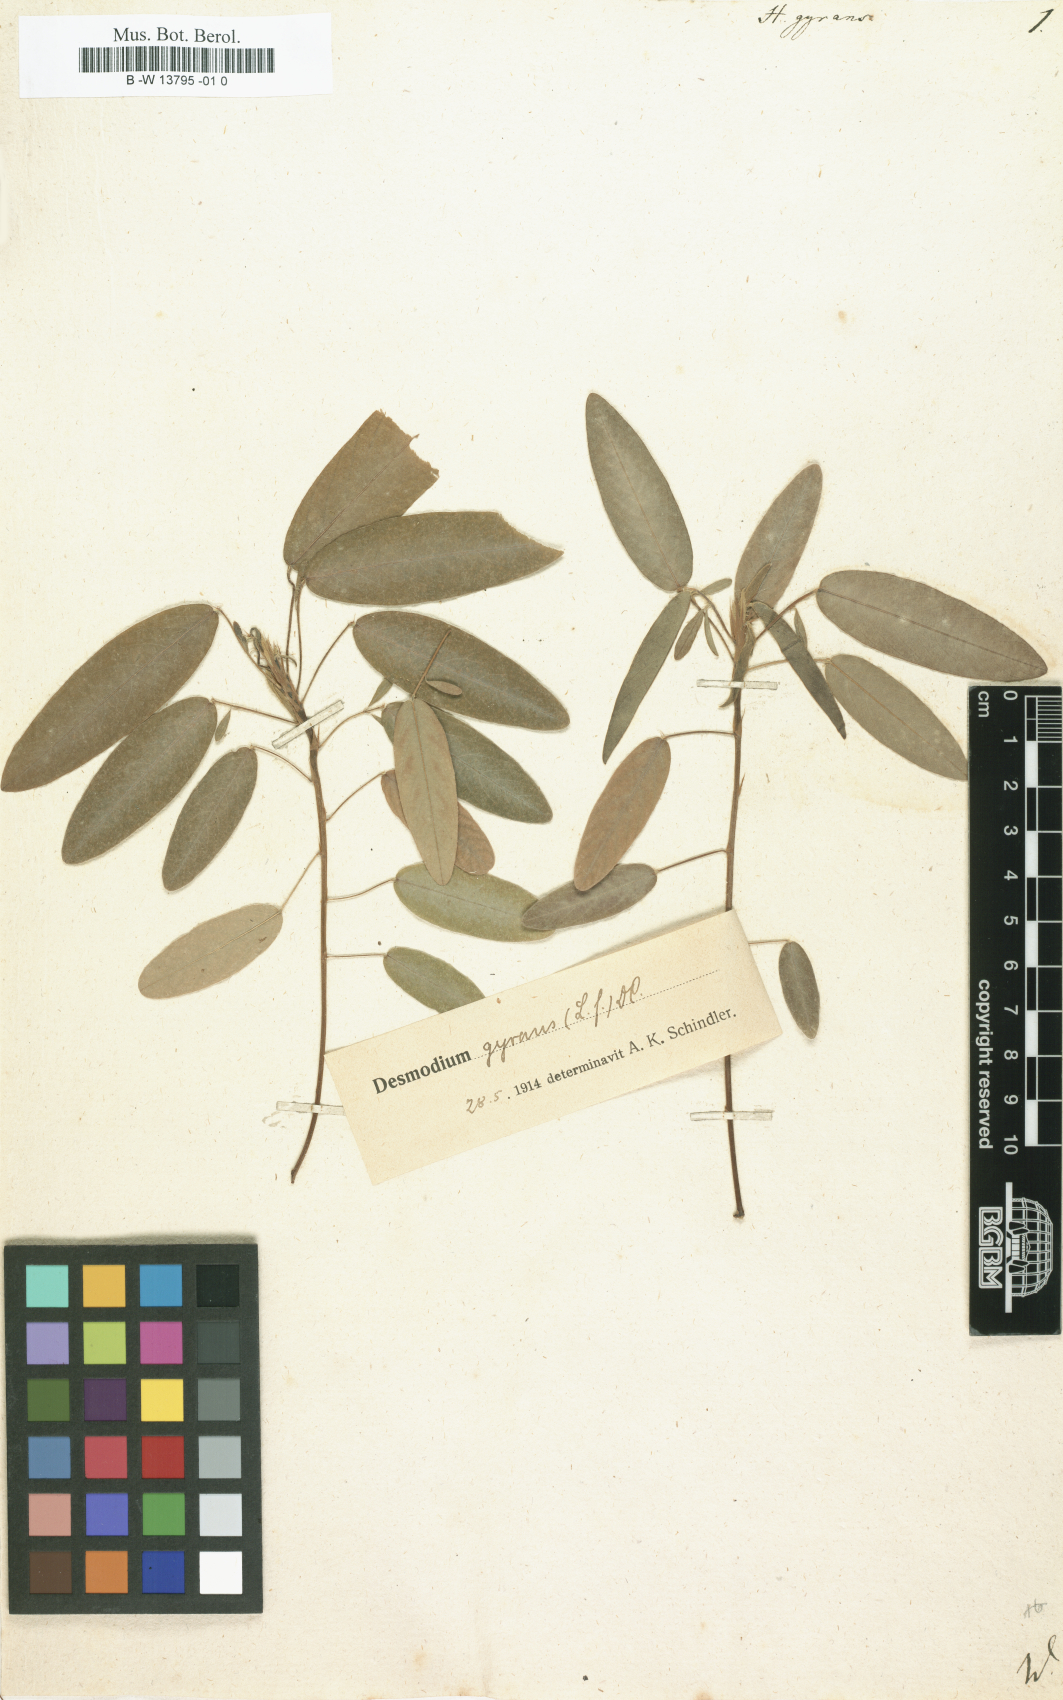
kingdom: Plantae
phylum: Tracheophyta
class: Magnoliopsida
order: Fabales
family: Fabaceae
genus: Codariocalyx
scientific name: Codariocalyx motorius
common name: Telegraph-plant
